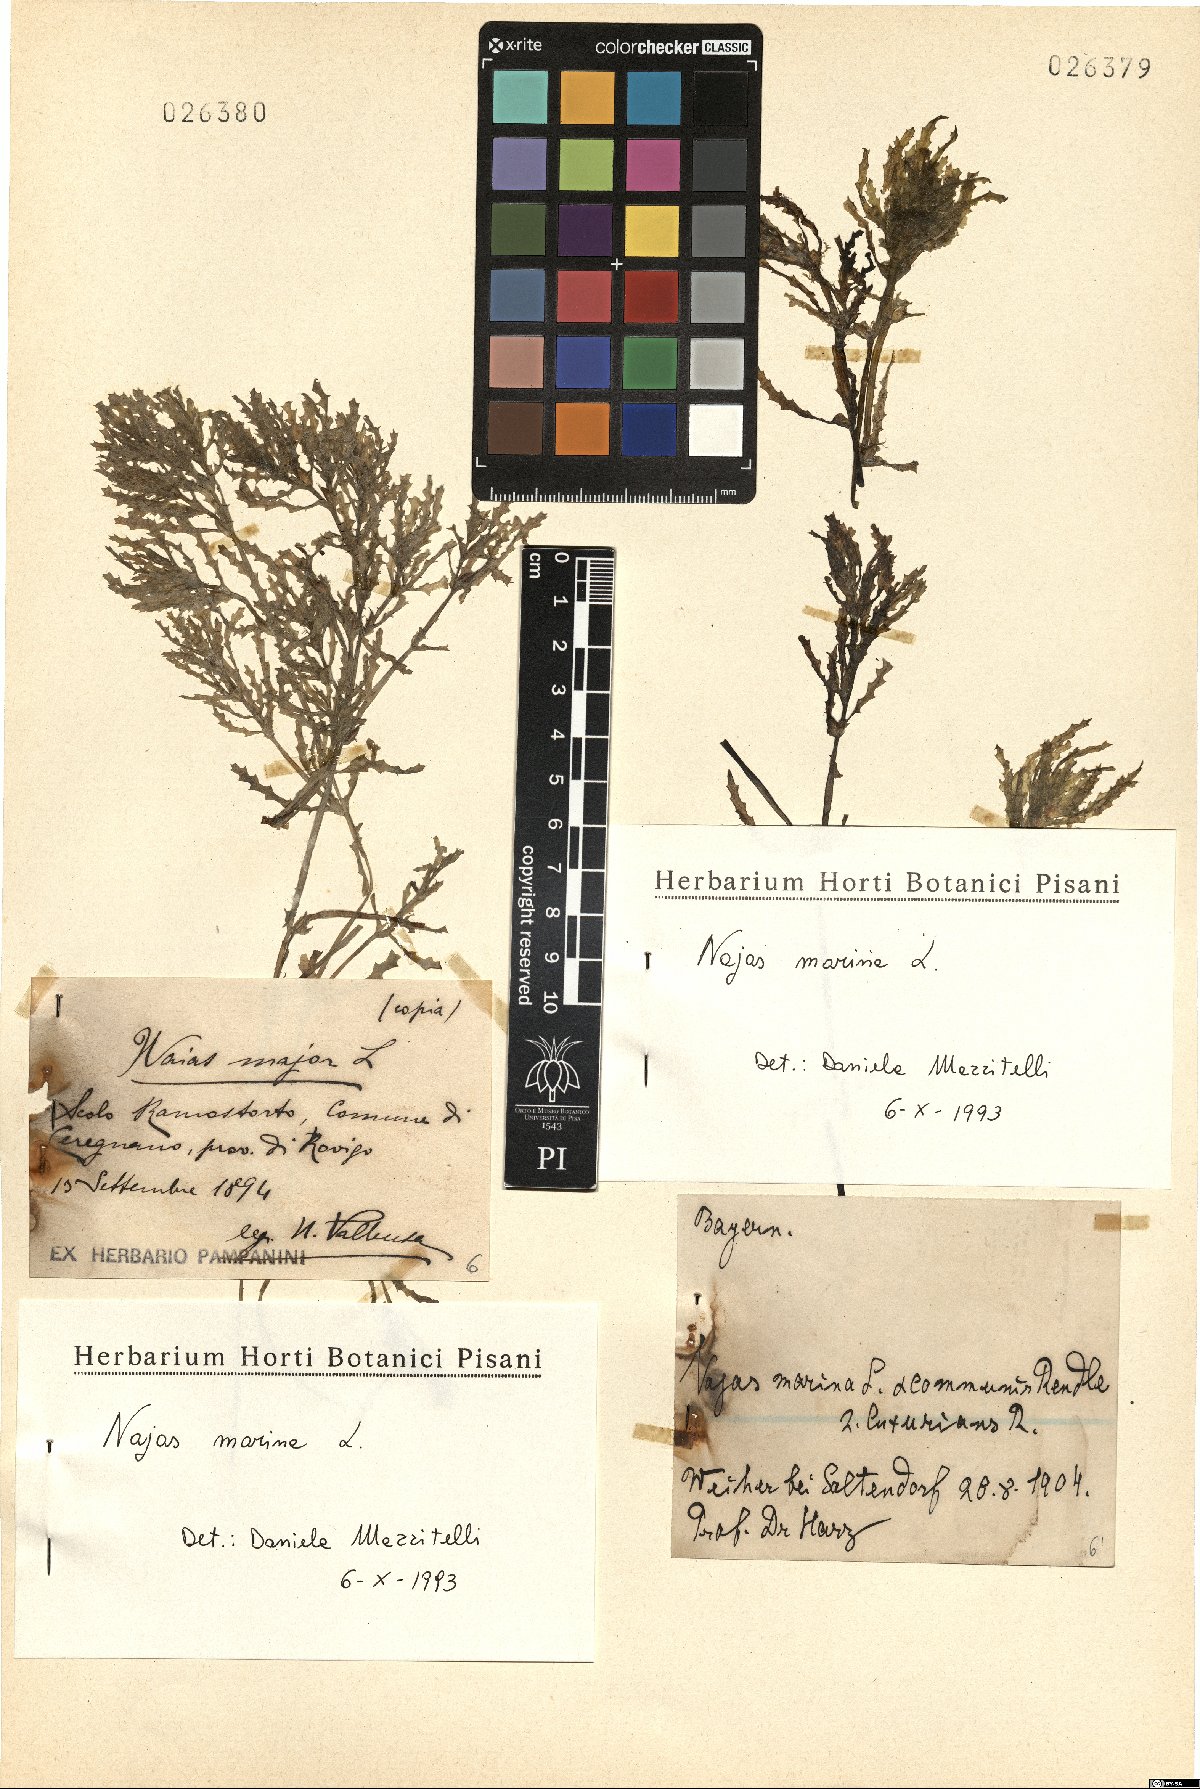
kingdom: Plantae
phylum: Tracheophyta
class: Liliopsida
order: Alismatales
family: Hydrocharitaceae
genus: Najas
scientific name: Najas marina
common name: Holly-leaved naiad
